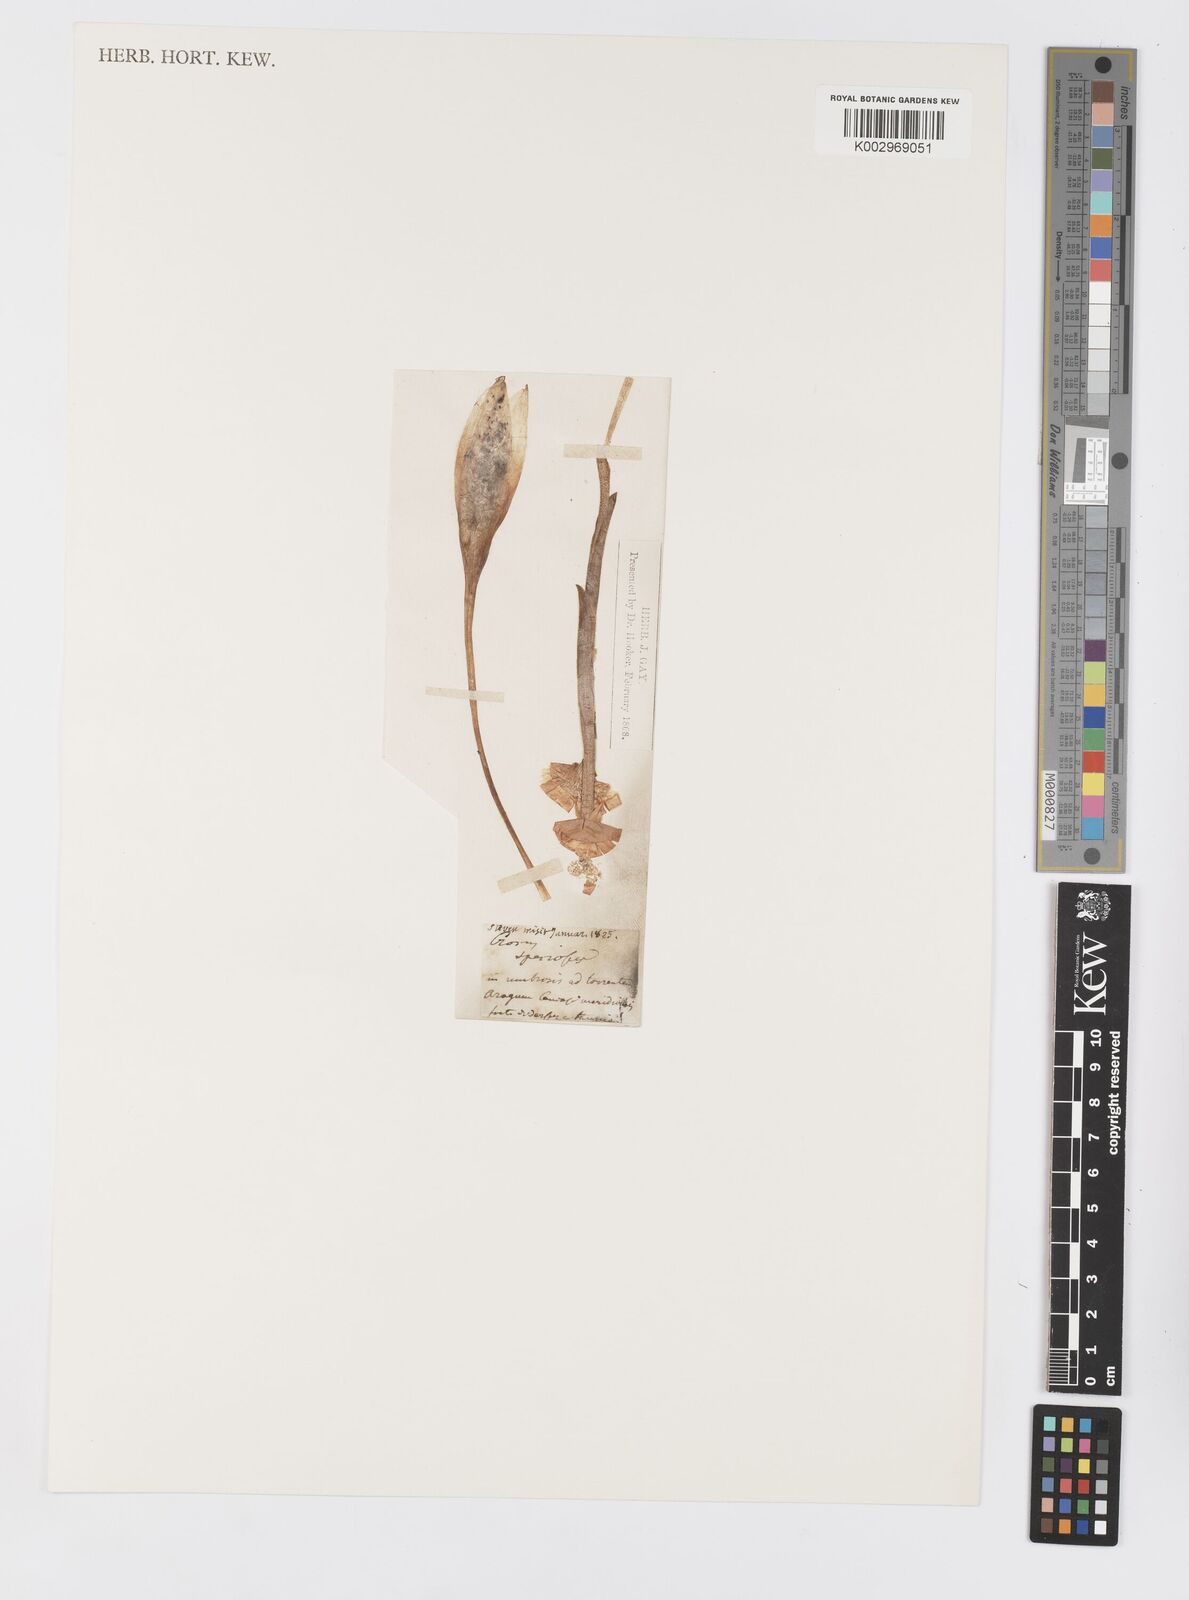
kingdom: Plantae
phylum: Tracheophyta
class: Liliopsida
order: Asparagales
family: Iridaceae
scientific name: Iridaceae
